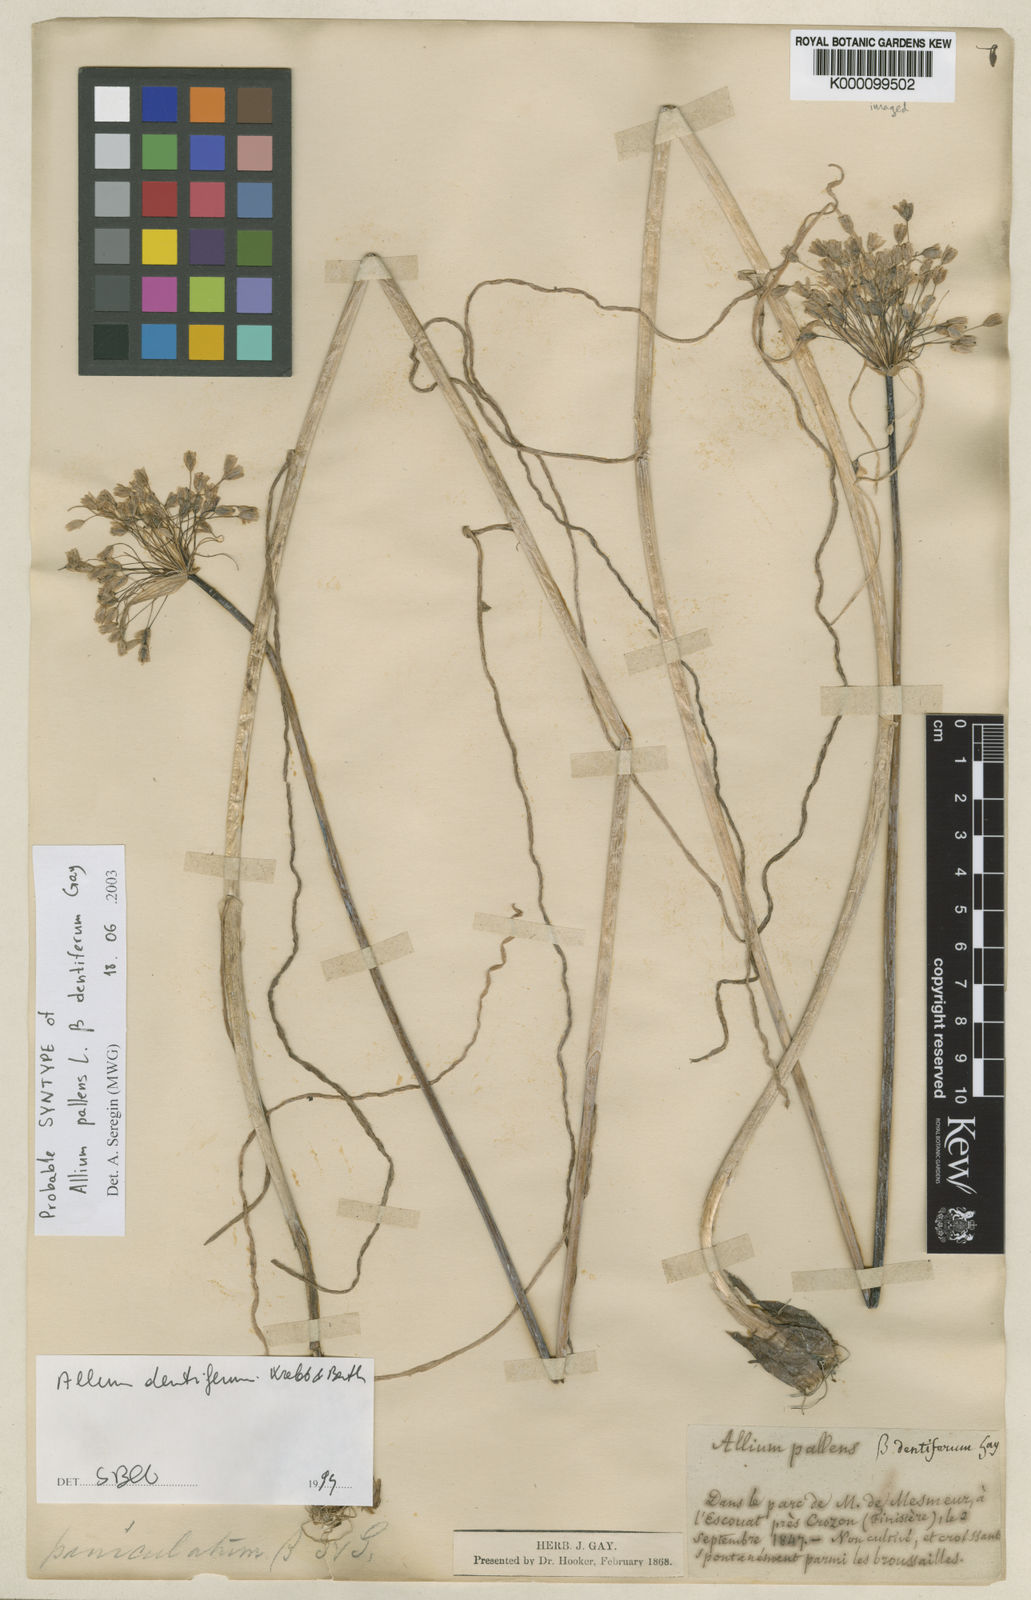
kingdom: Plantae
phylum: Tracheophyta
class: Liliopsida
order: Asparagales
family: Amaryllidaceae
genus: Allium
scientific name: Allium longispathum
